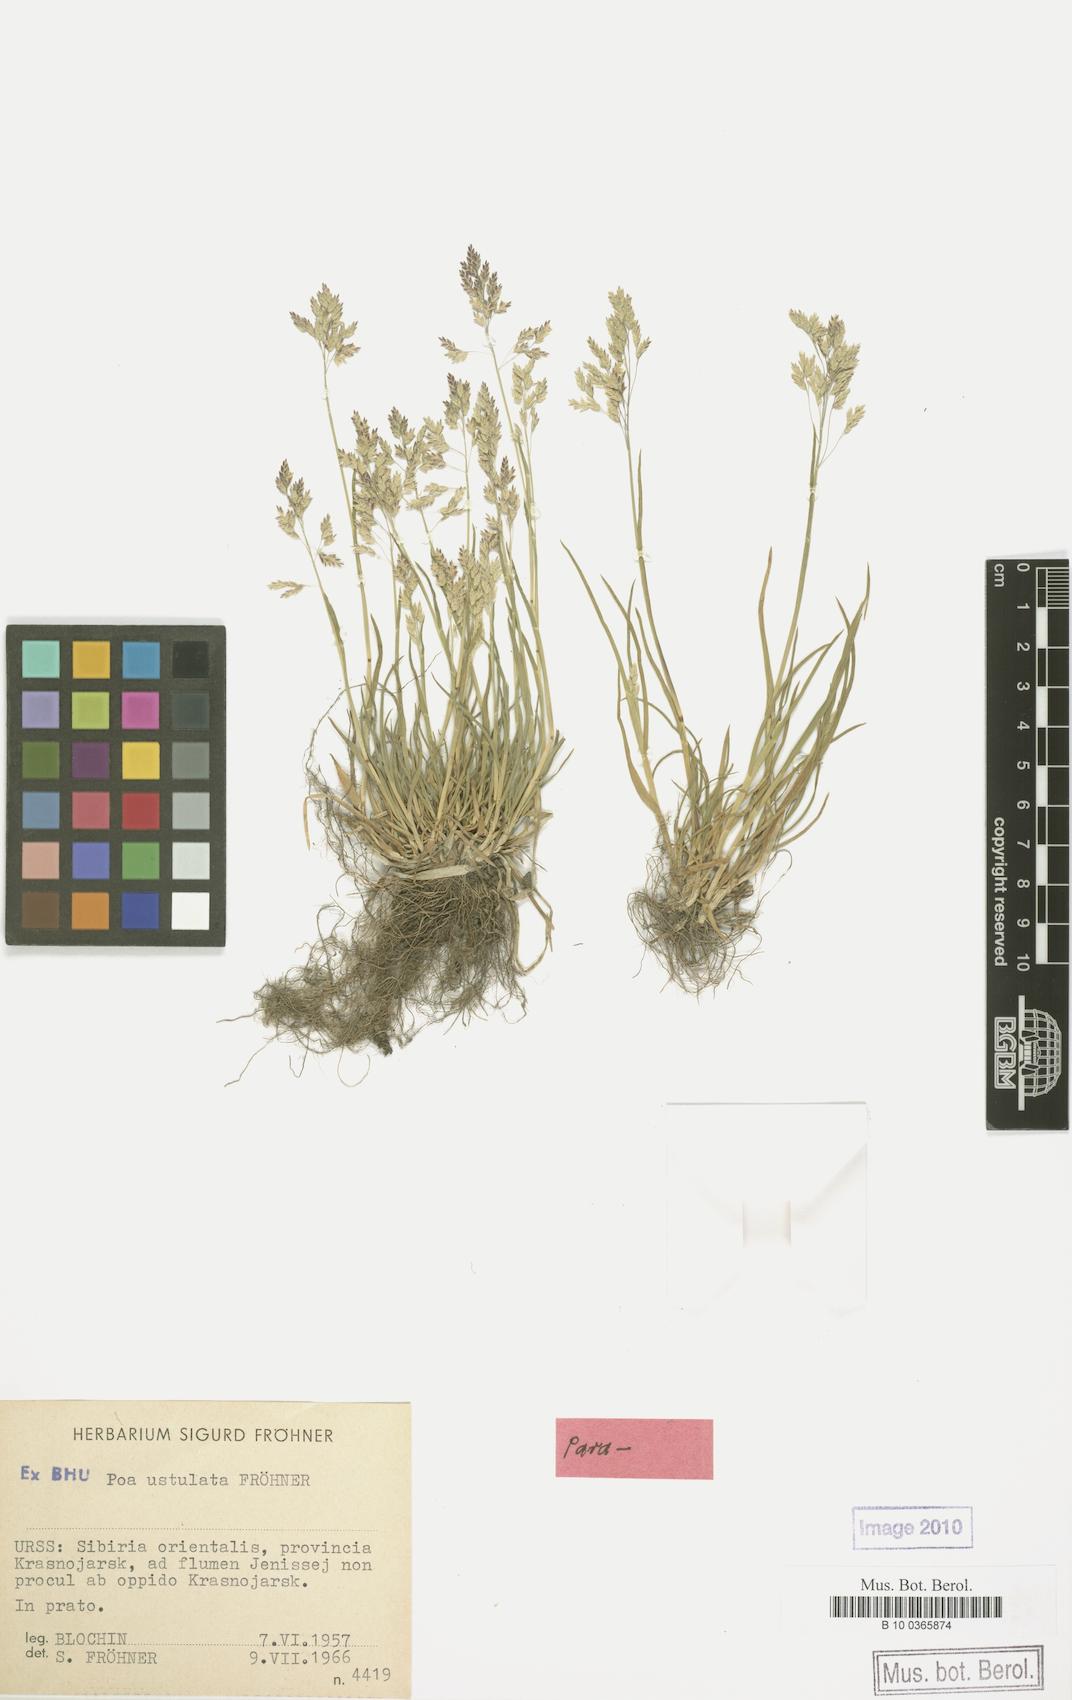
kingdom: Plantae
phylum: Tracheophyta
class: Liliopsida
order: Poales
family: Poaceae
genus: Poa
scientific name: Poa supina
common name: Supina bluegrass
